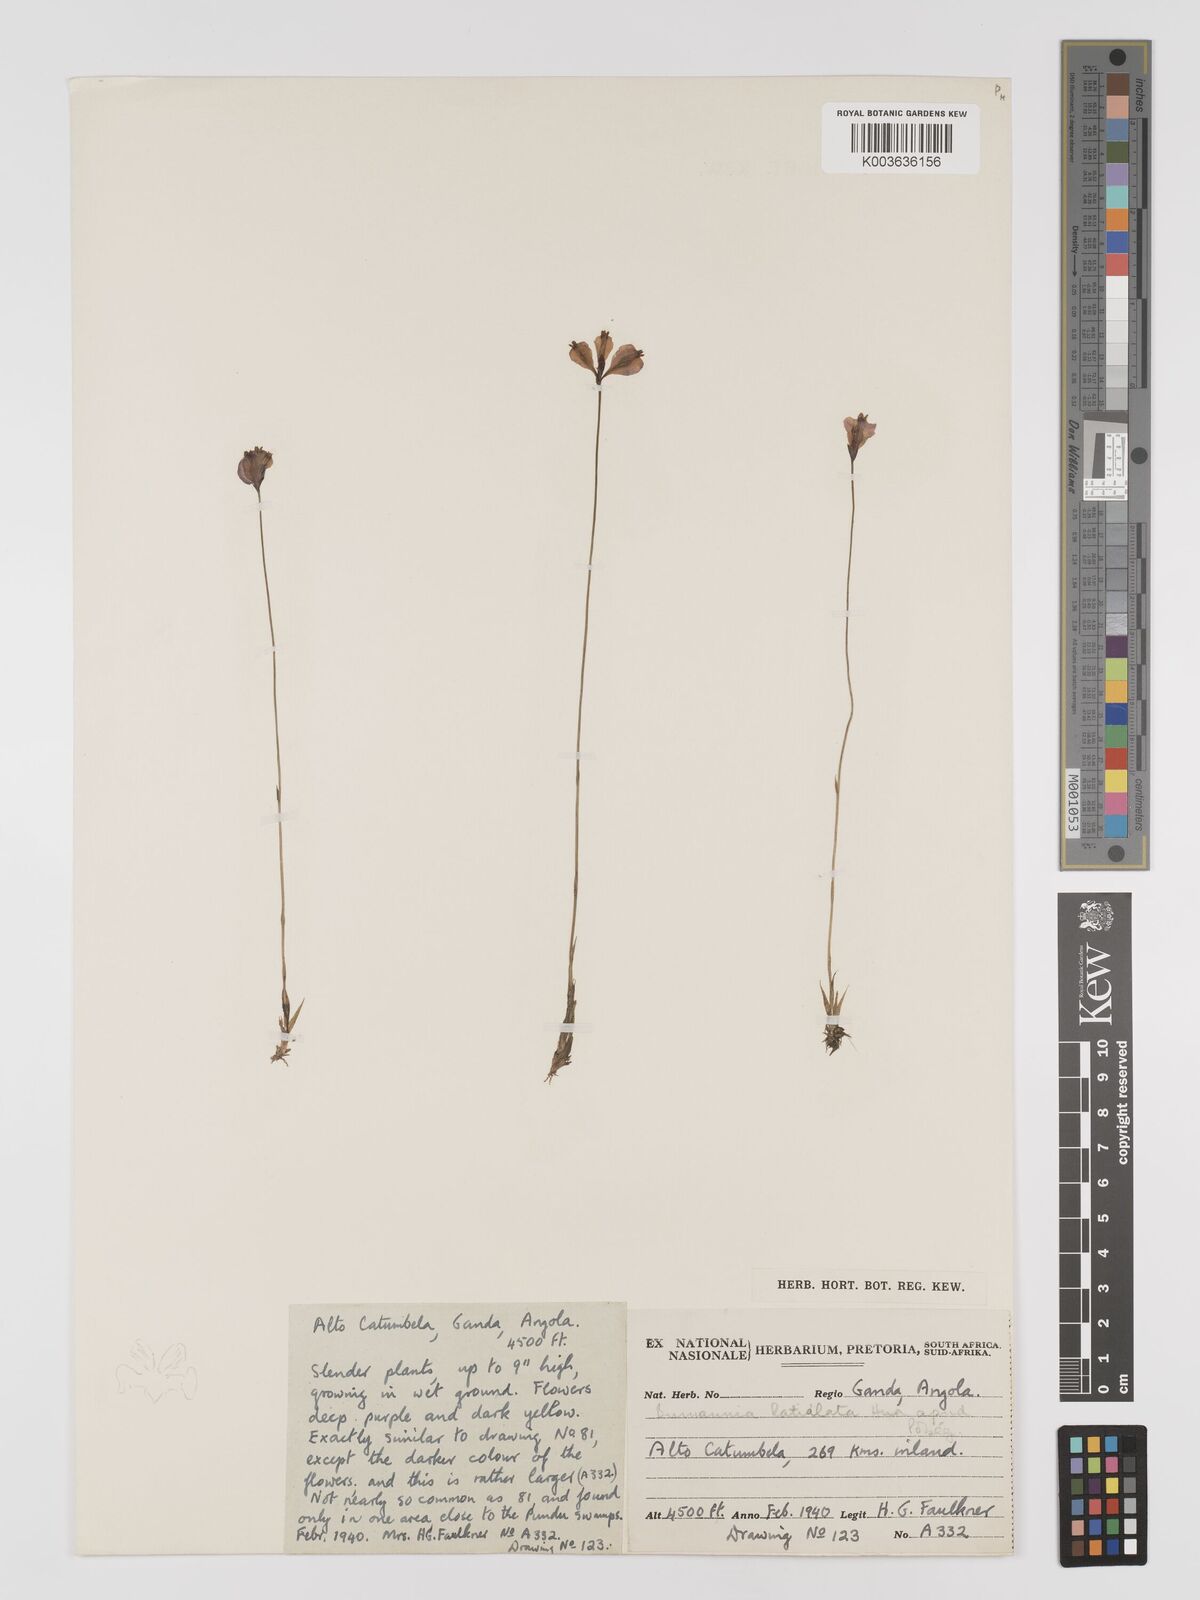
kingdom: Plantae
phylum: Tracheophyta
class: Liliopsida
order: Dioscoreales
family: Burmanniaceae
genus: Burmannia
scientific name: Burmannia madagascariensis
